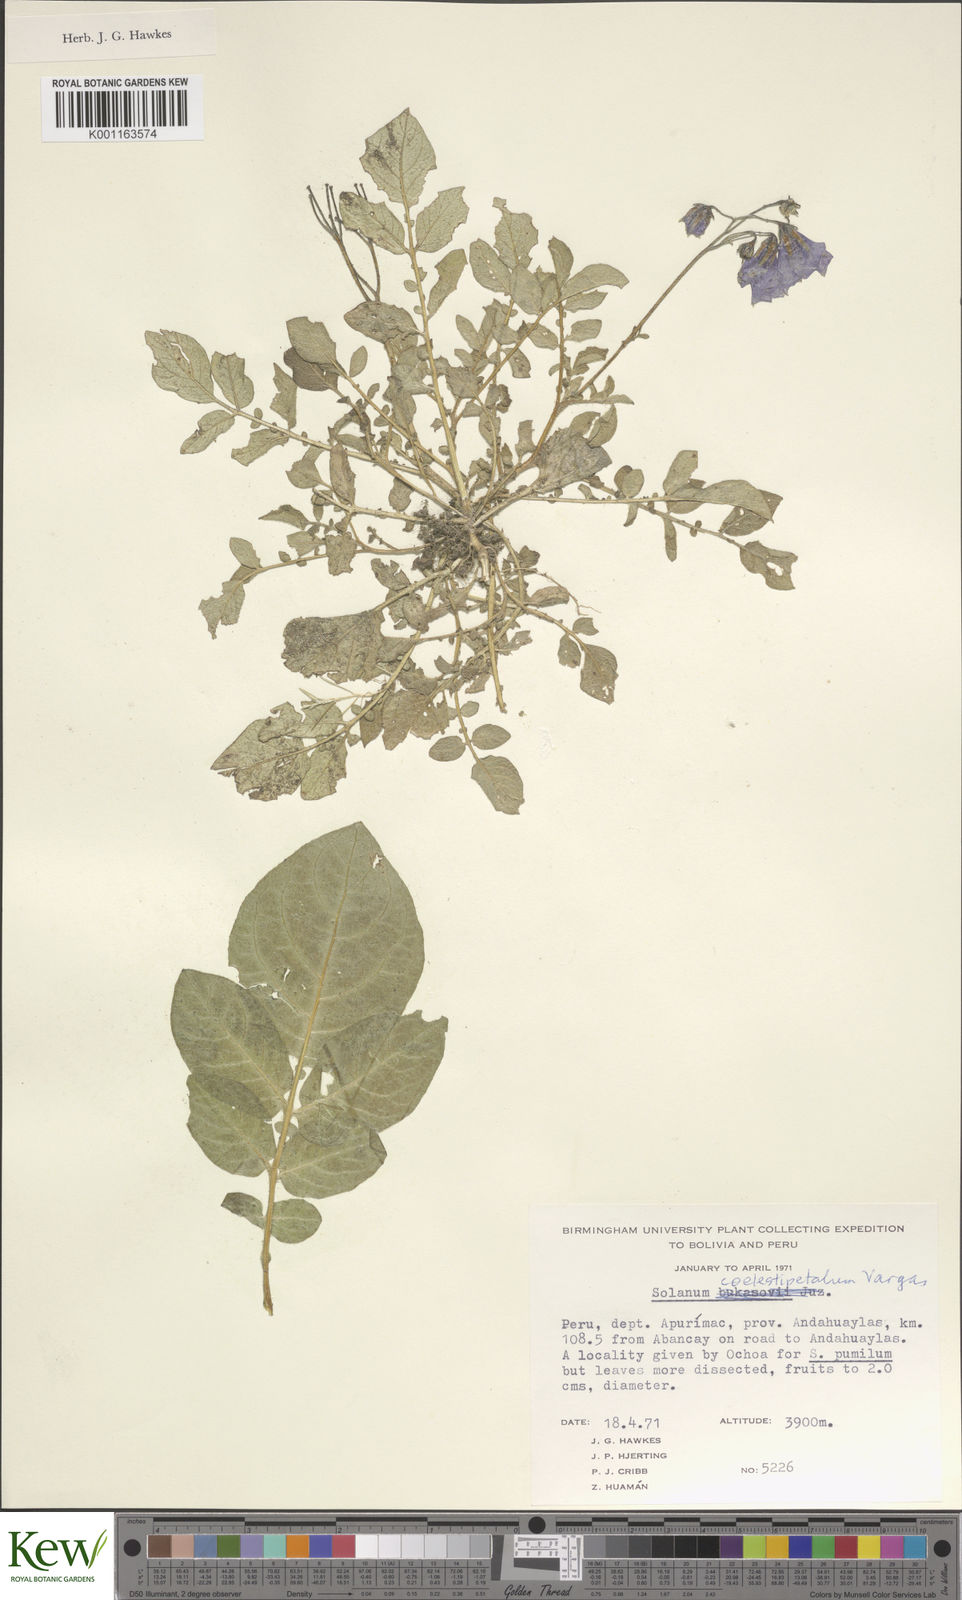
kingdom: Plantae
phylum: Tracheophyta
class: Magnoliopsida
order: Solanales
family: Solanaceae
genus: Solanum
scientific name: Solanum brevicaule
